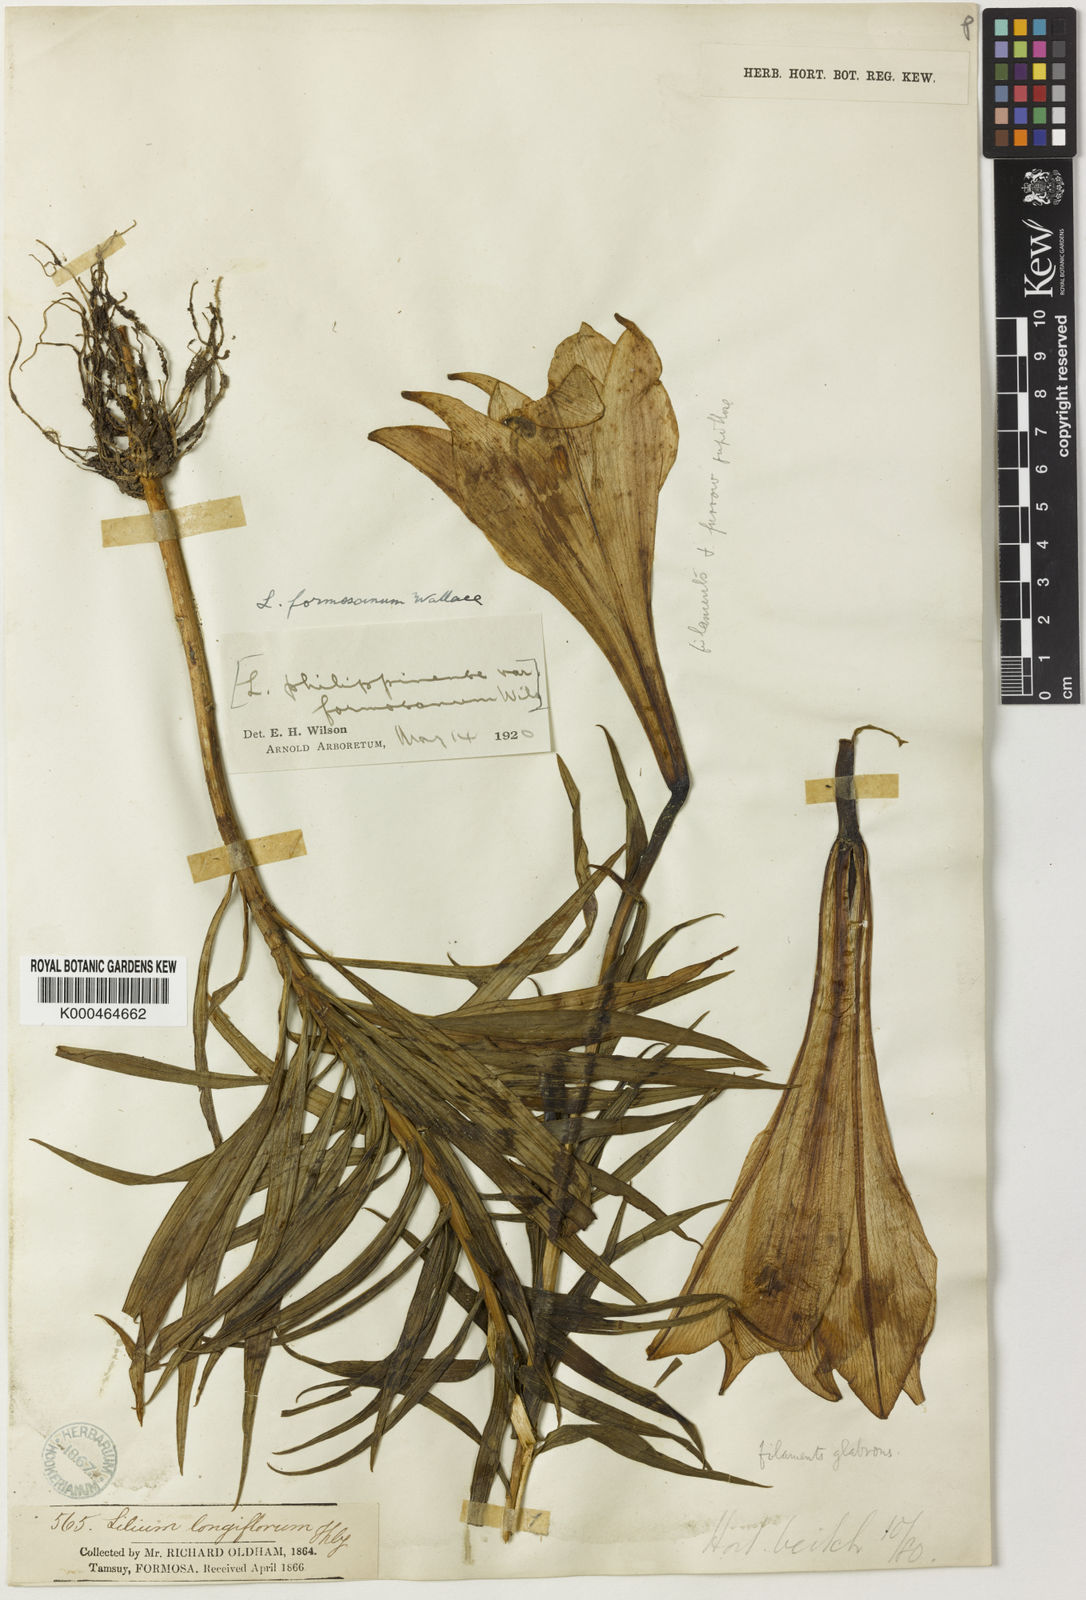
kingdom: Plantae
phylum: Tracheophyta
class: Liliopsida
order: Liliales
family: Liliaceae
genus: Lilium
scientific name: Lilium formosanum
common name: Formosa lily
